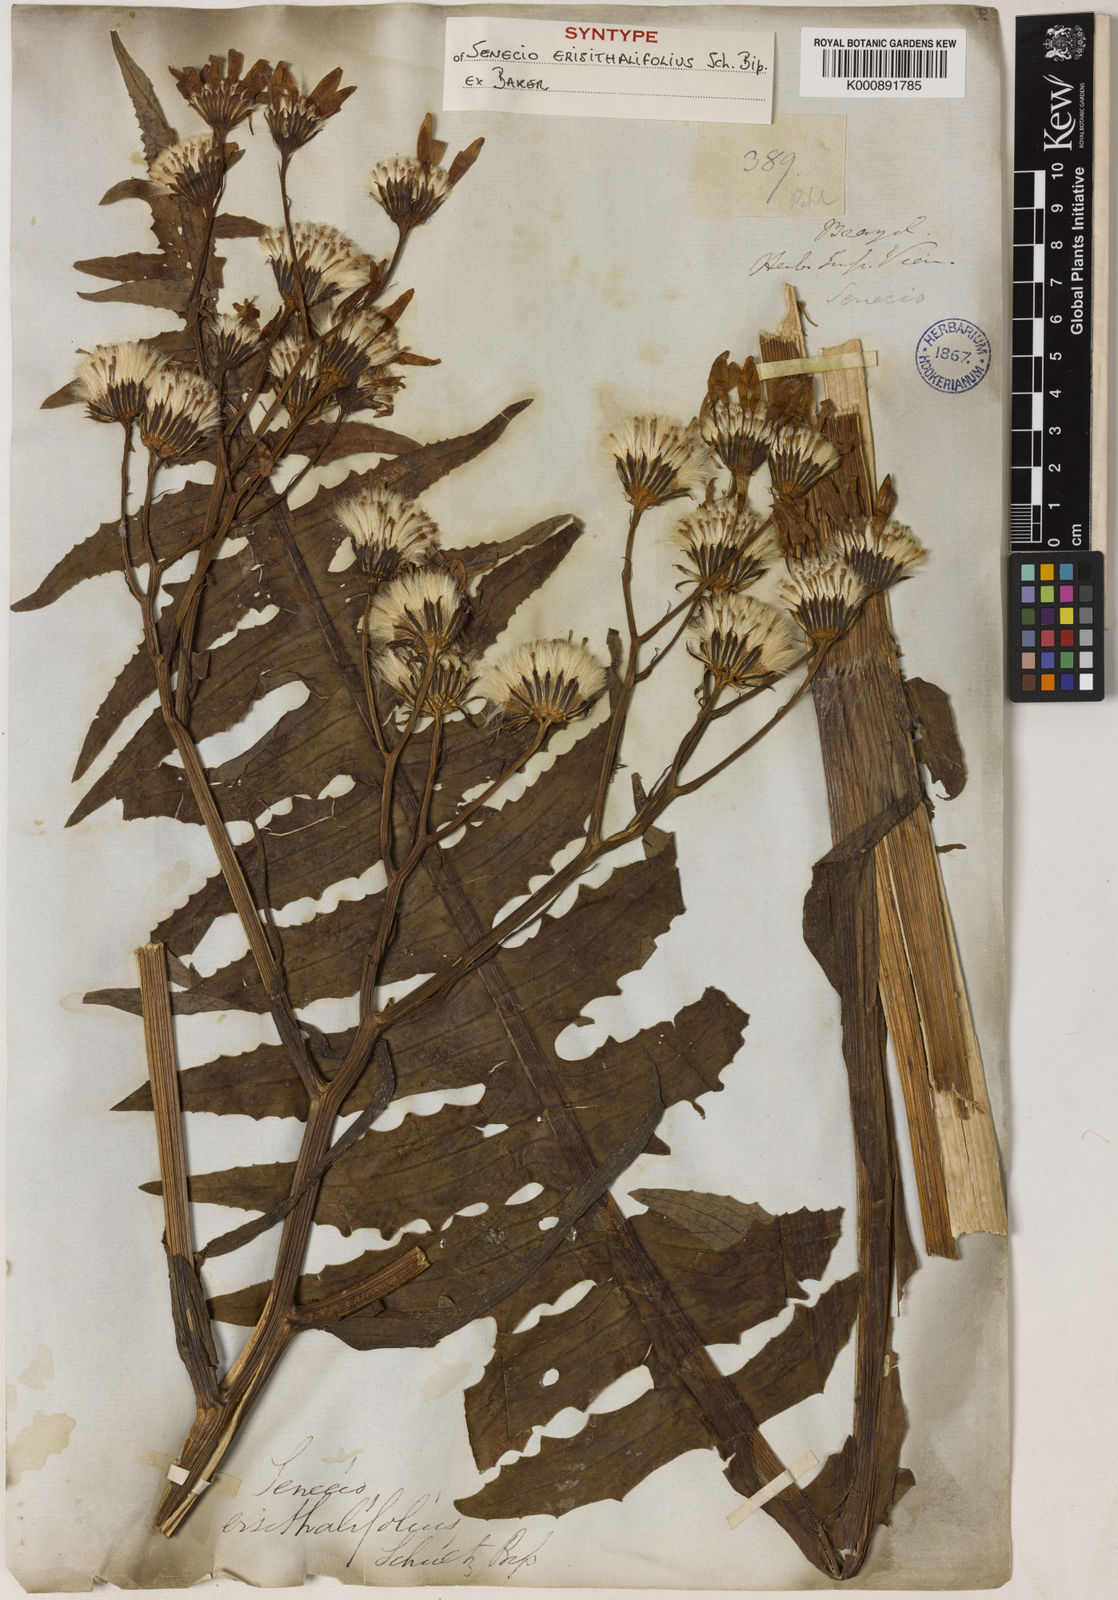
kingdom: Plantae
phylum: Tracheophyta
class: Magnoliopsida
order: Asterales
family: Asteraceae
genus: Senecio
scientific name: Senecio erisithalifolius
